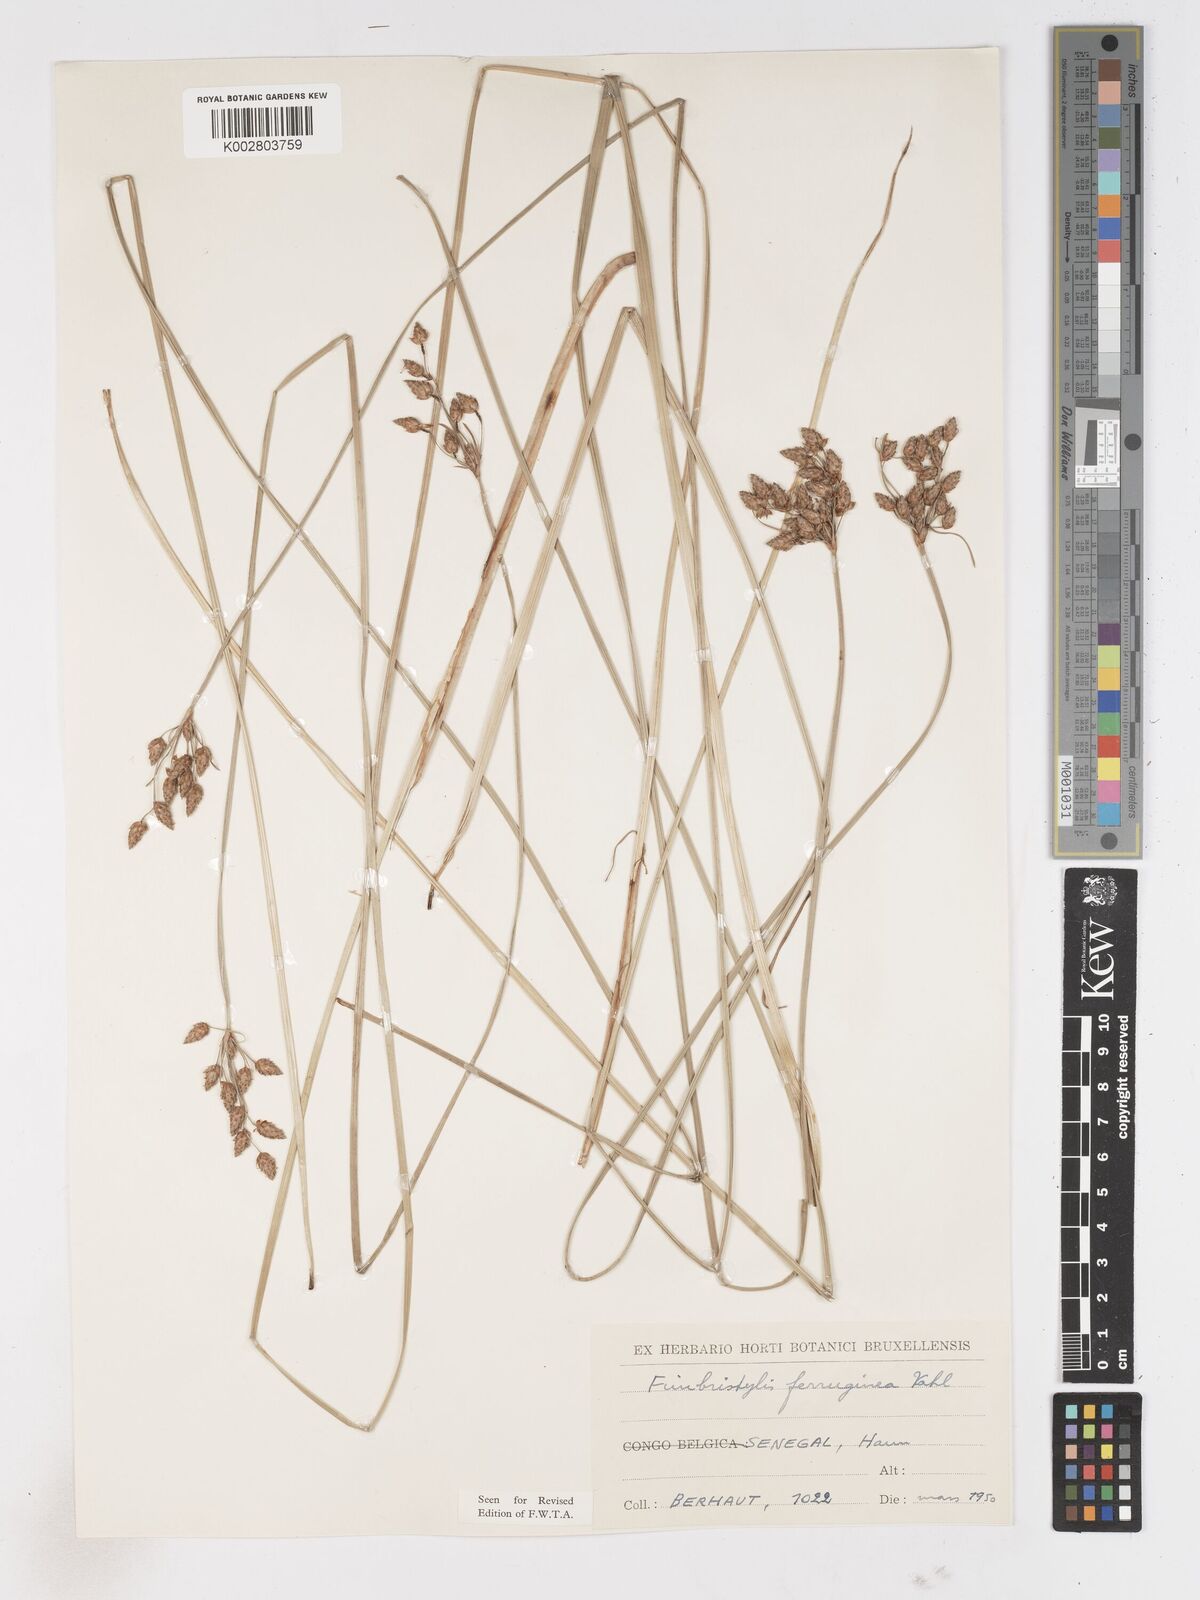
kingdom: Plantae
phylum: Tracheophyta
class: Liliopsida
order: Poales
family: Cyperaceae
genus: Fimbristylis
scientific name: Fimbristylis ferruginea
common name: West indian fimbry
